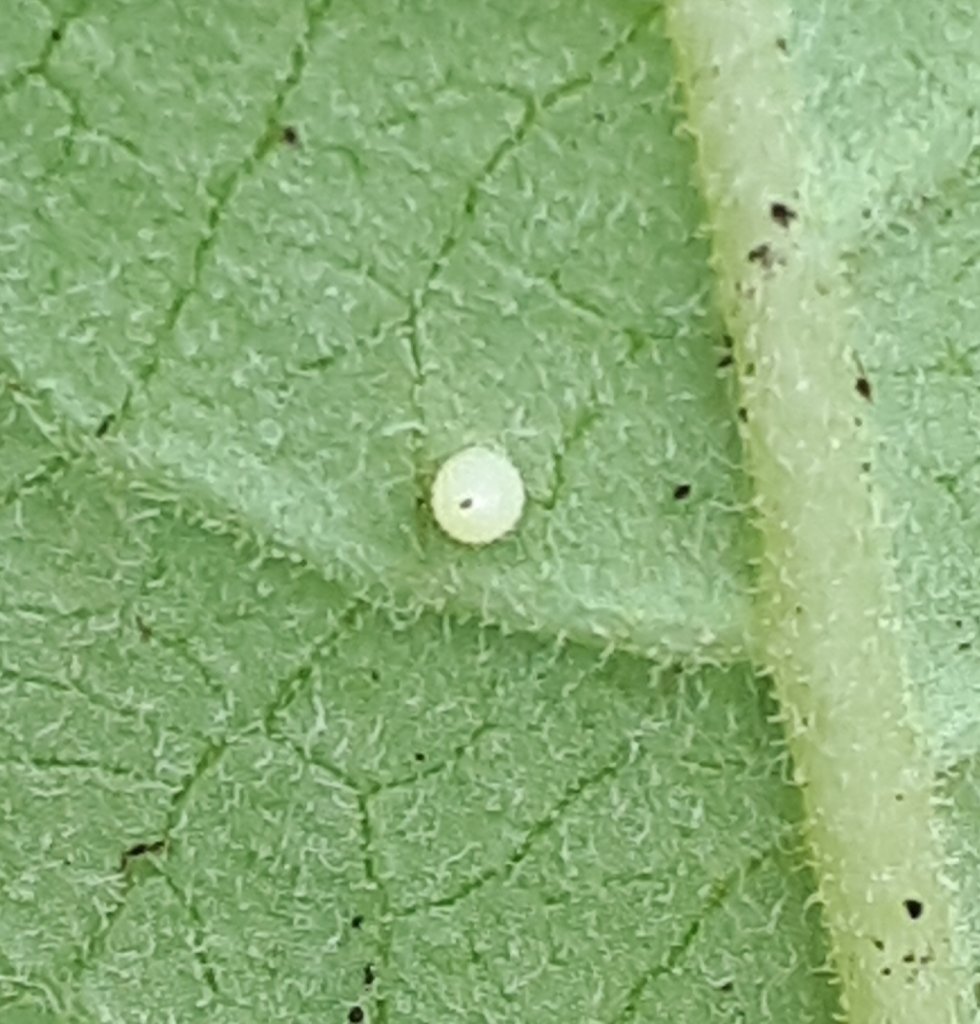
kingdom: Animalia
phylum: Arthropoda
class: Insecta
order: Lepidoptera
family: Nymphalidae
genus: Danaus
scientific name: Danaus plexippus
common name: Monarch
